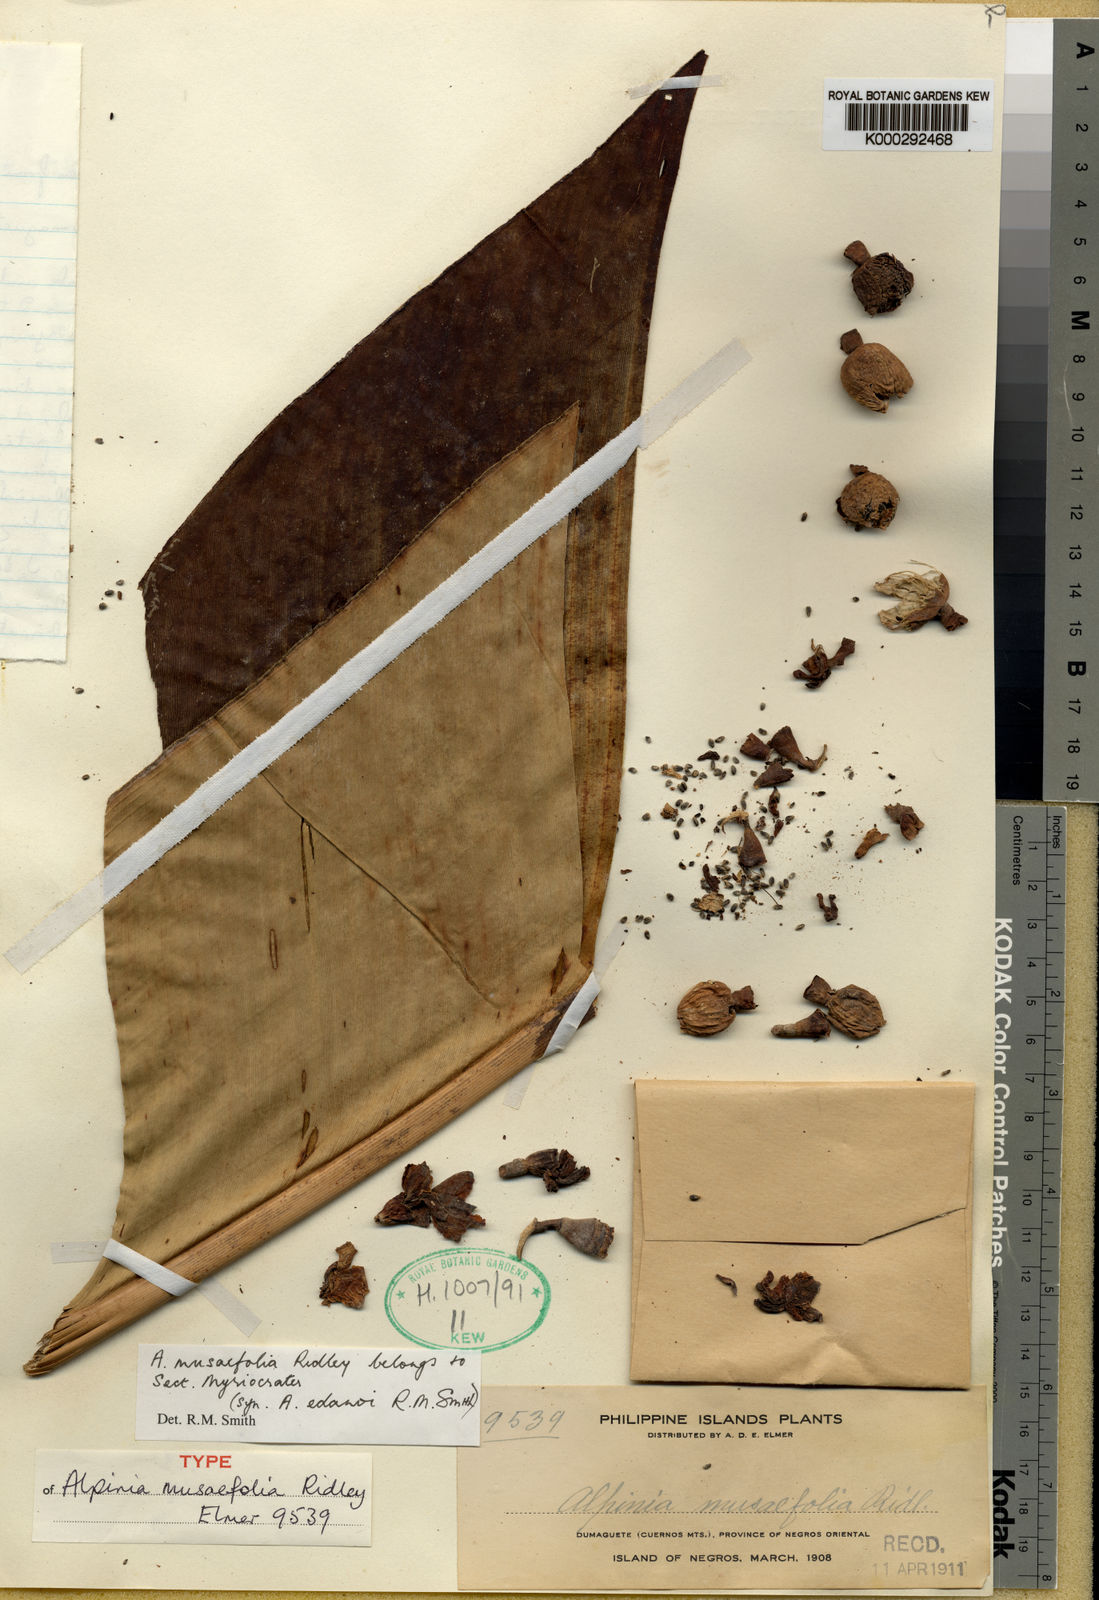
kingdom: Plantae
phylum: Tracheophyta
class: Liliopsida
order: Zingiberales
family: Zingiberaceae
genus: Alpinia
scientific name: Alpinia musifolia
